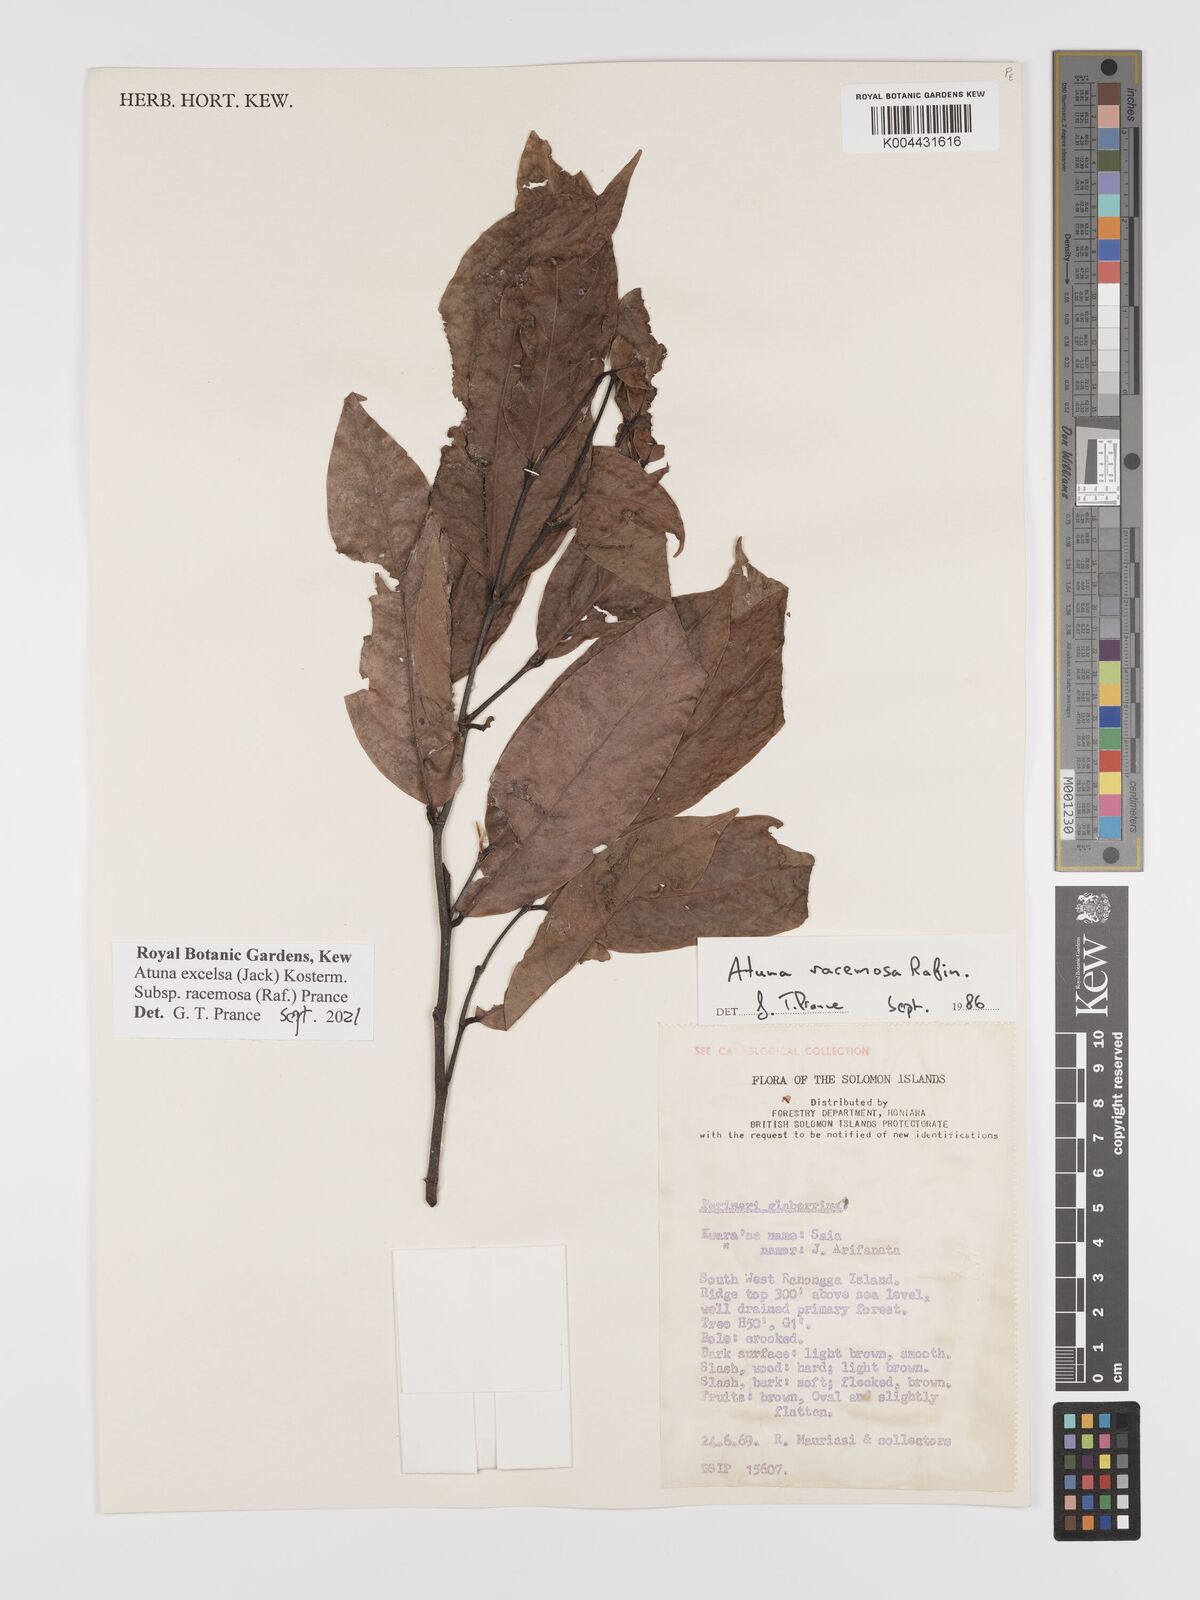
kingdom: Plantae
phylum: Tracheophyta
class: Magnoliopsida
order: Malpighiales
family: Chrysobalanaceae
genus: Atuna
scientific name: Atuna
